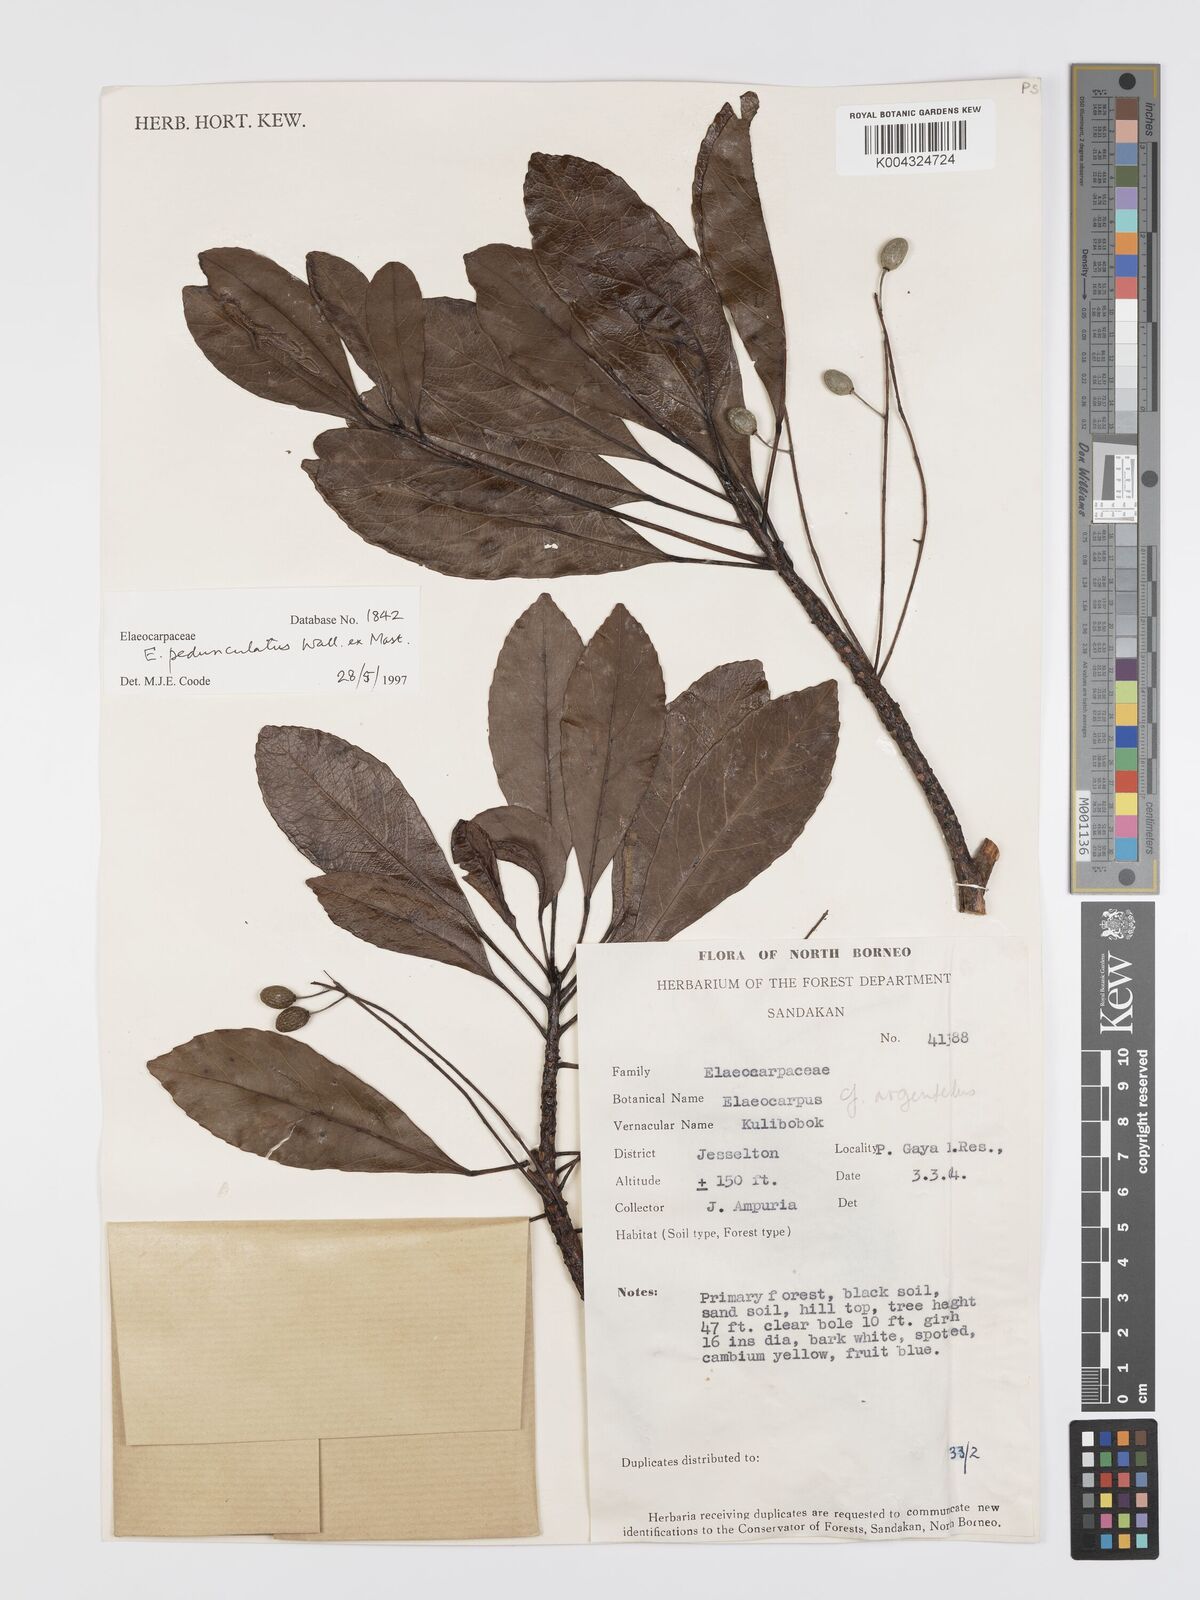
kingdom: Plantae
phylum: Tracheophyta
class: Magnoliopsida
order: Oxalidales
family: Elaeocarpaceae
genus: Elaeocarpus
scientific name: Elaeocarpus pedunculatus
